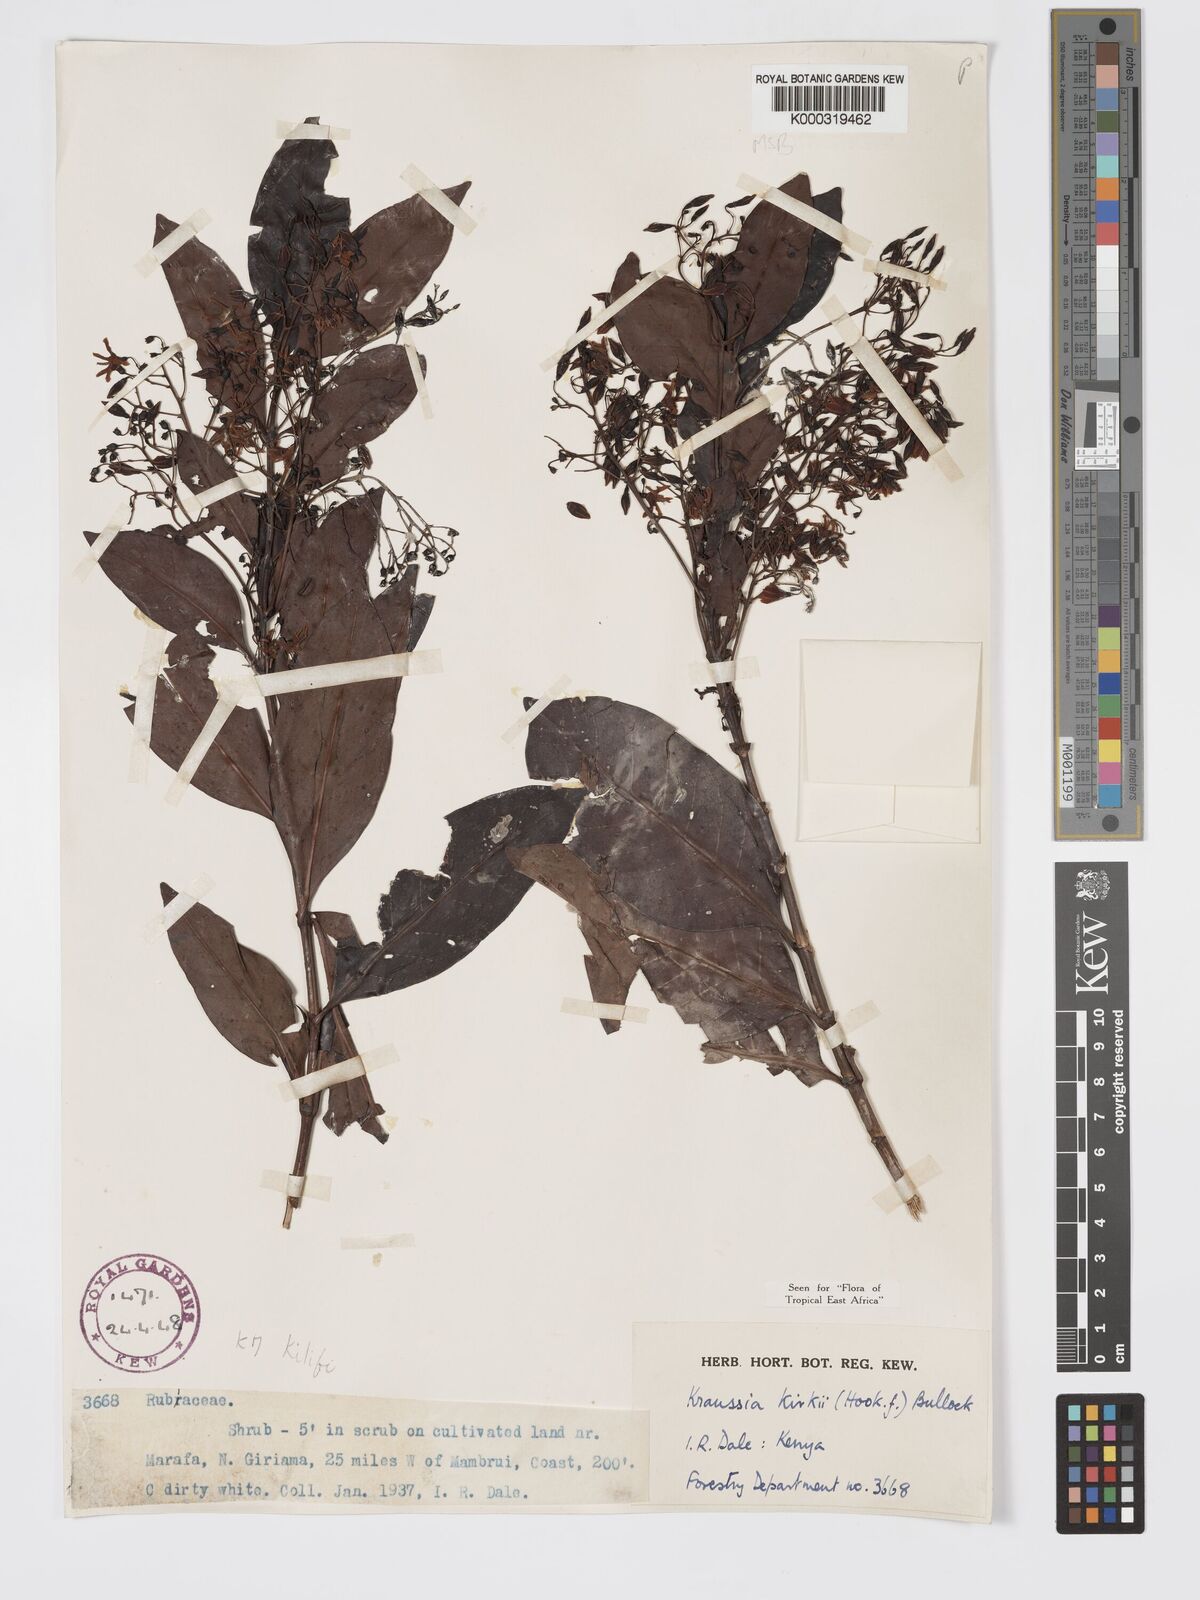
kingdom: Plantae
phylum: Tracheophyta
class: Magnoliopsida
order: Gentianales
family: Rubiaceae
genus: Kraussia
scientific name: Kraussia kirkii
